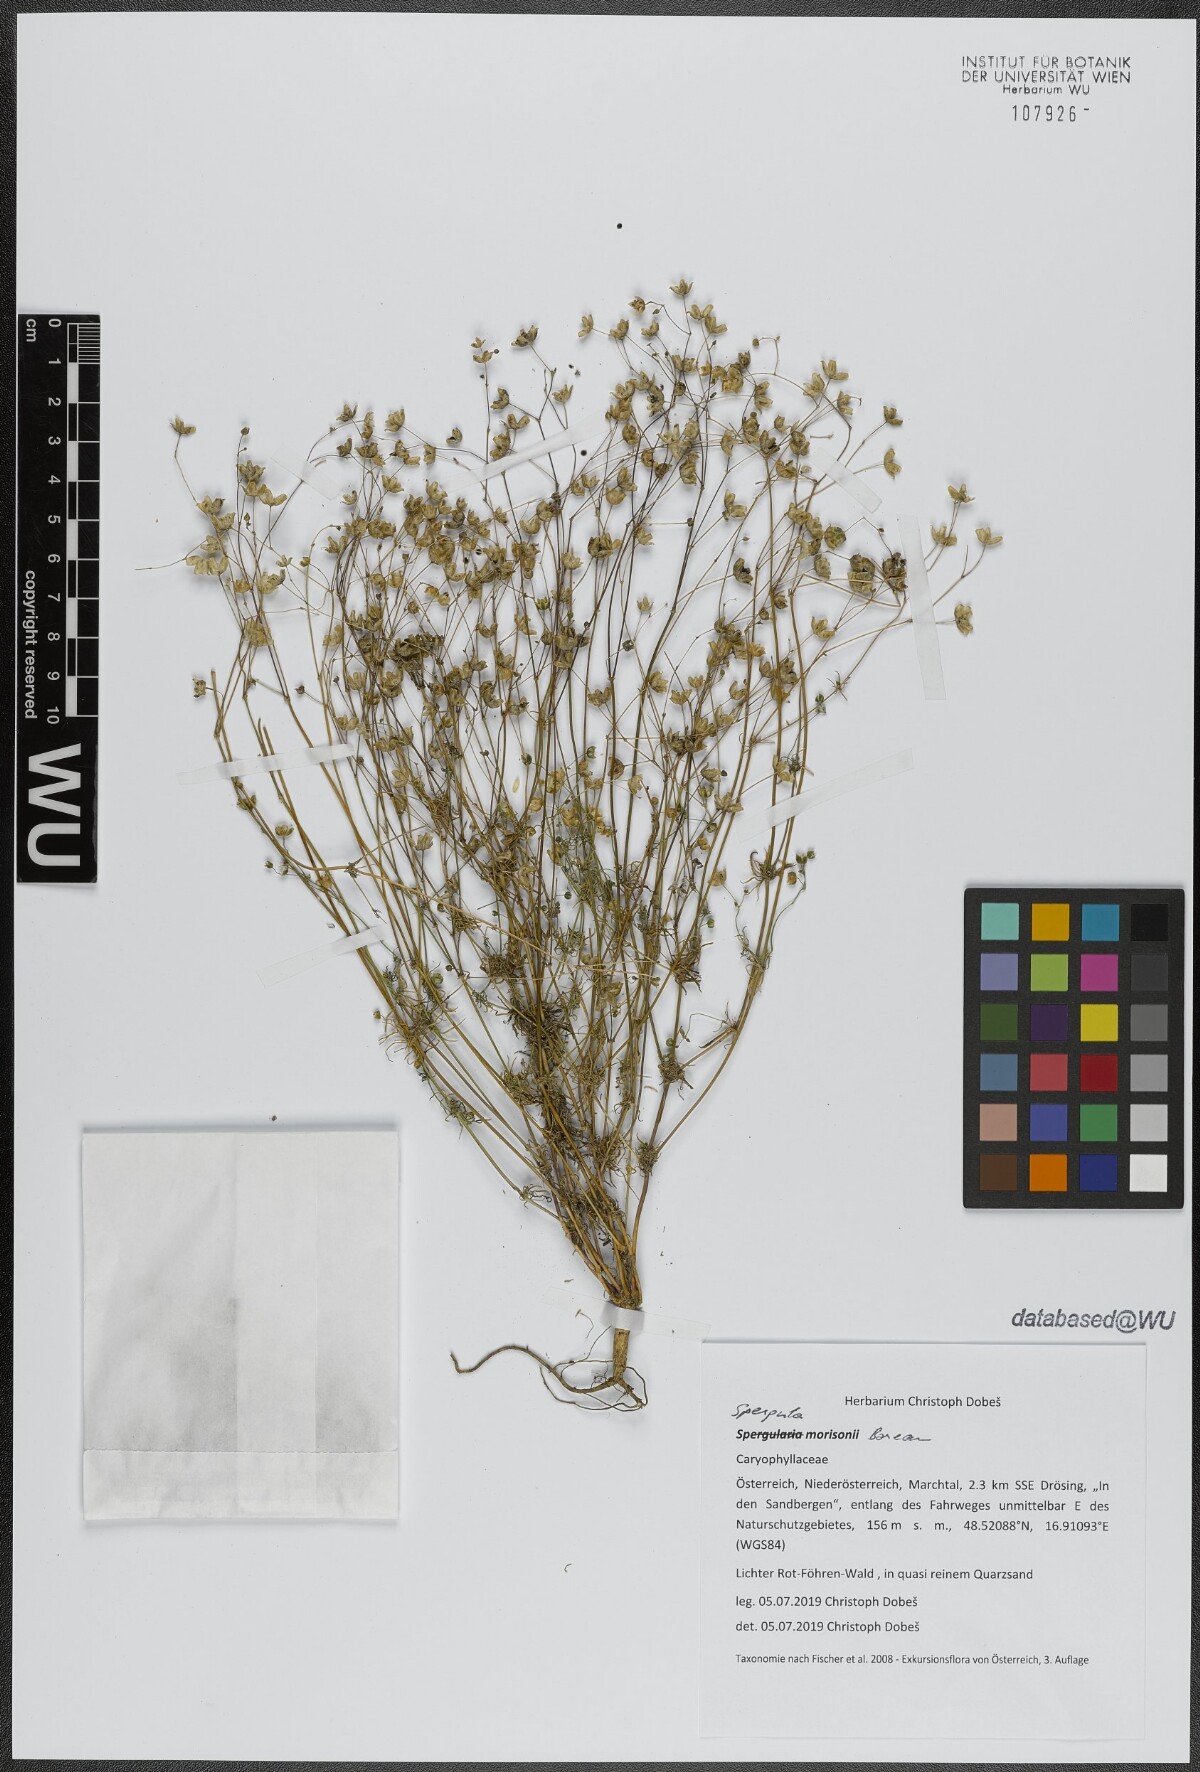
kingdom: Plantae
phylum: Tracheophyta
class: Magnoliopsida
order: Caryophyllales
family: Caryophyllaceae
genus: Spergula
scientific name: Spergula morisonii
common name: Pearlwort spurrey
